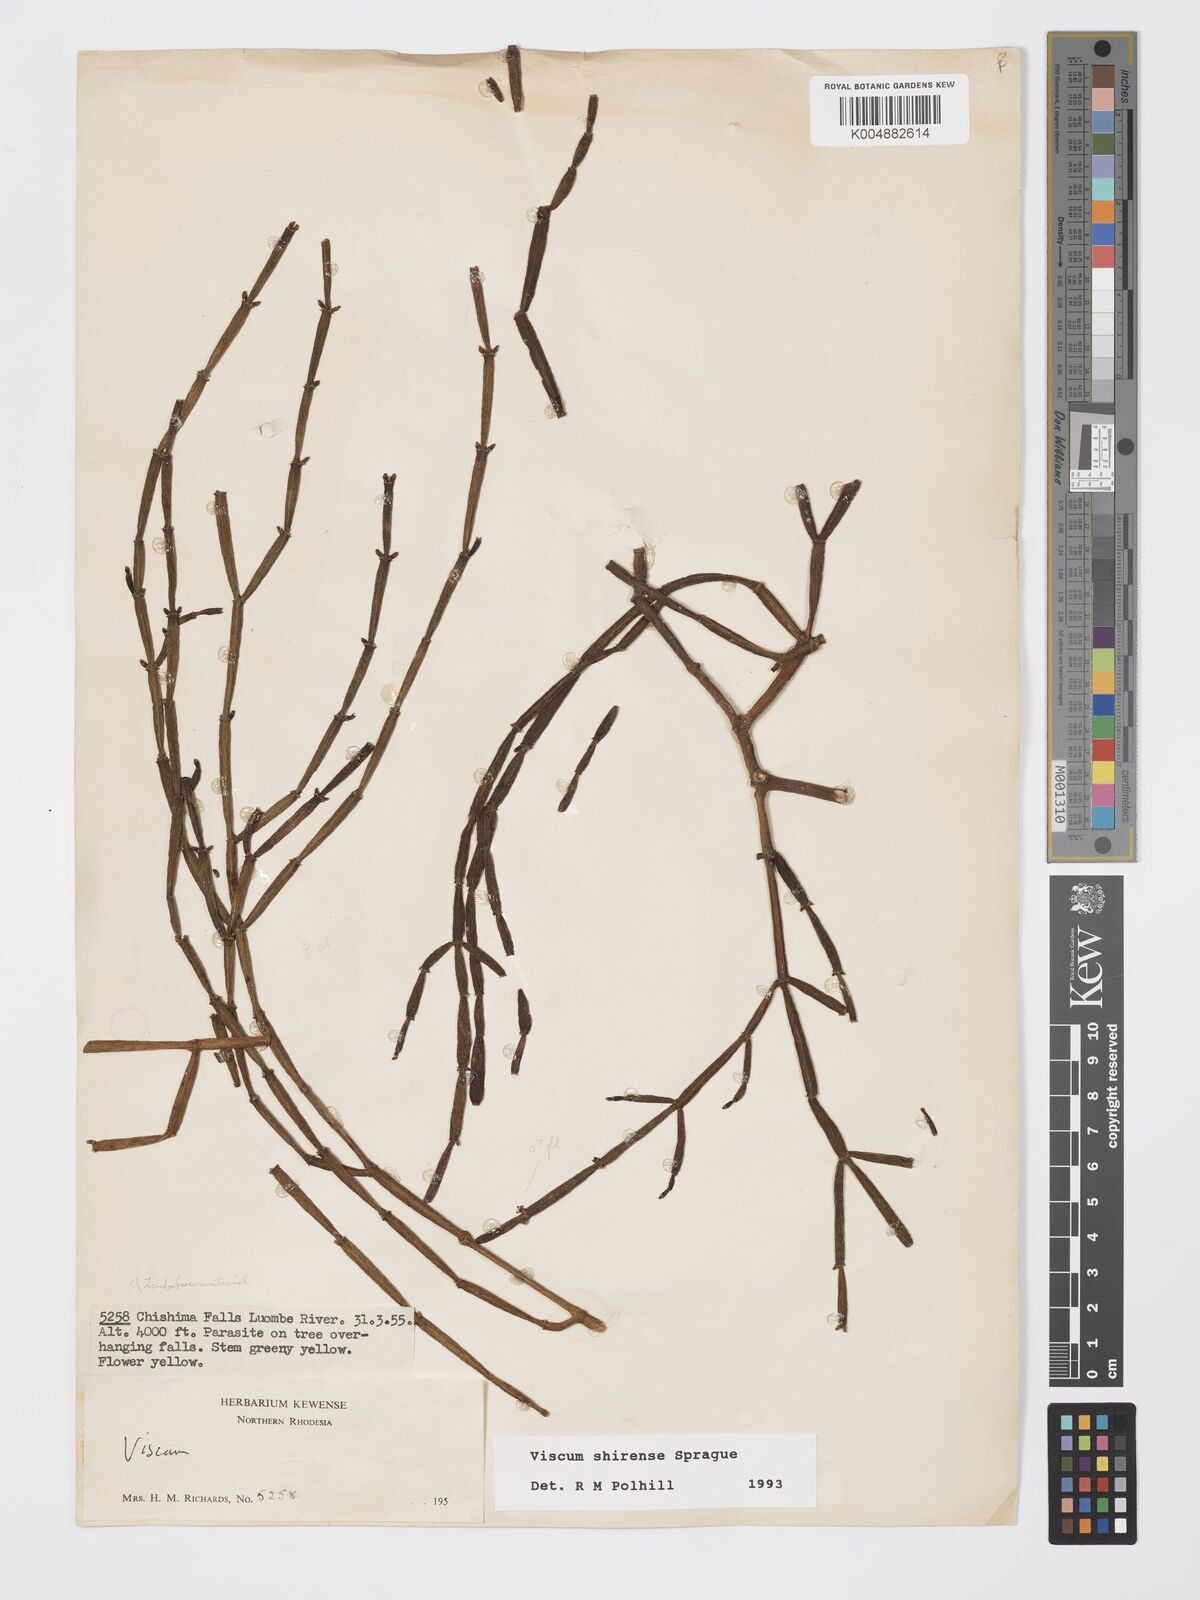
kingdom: Plantae
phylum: Tracheophyta
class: Magnoliopsida
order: Santalales
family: Viscaceae
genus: Viscum
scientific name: Viscum junodii
